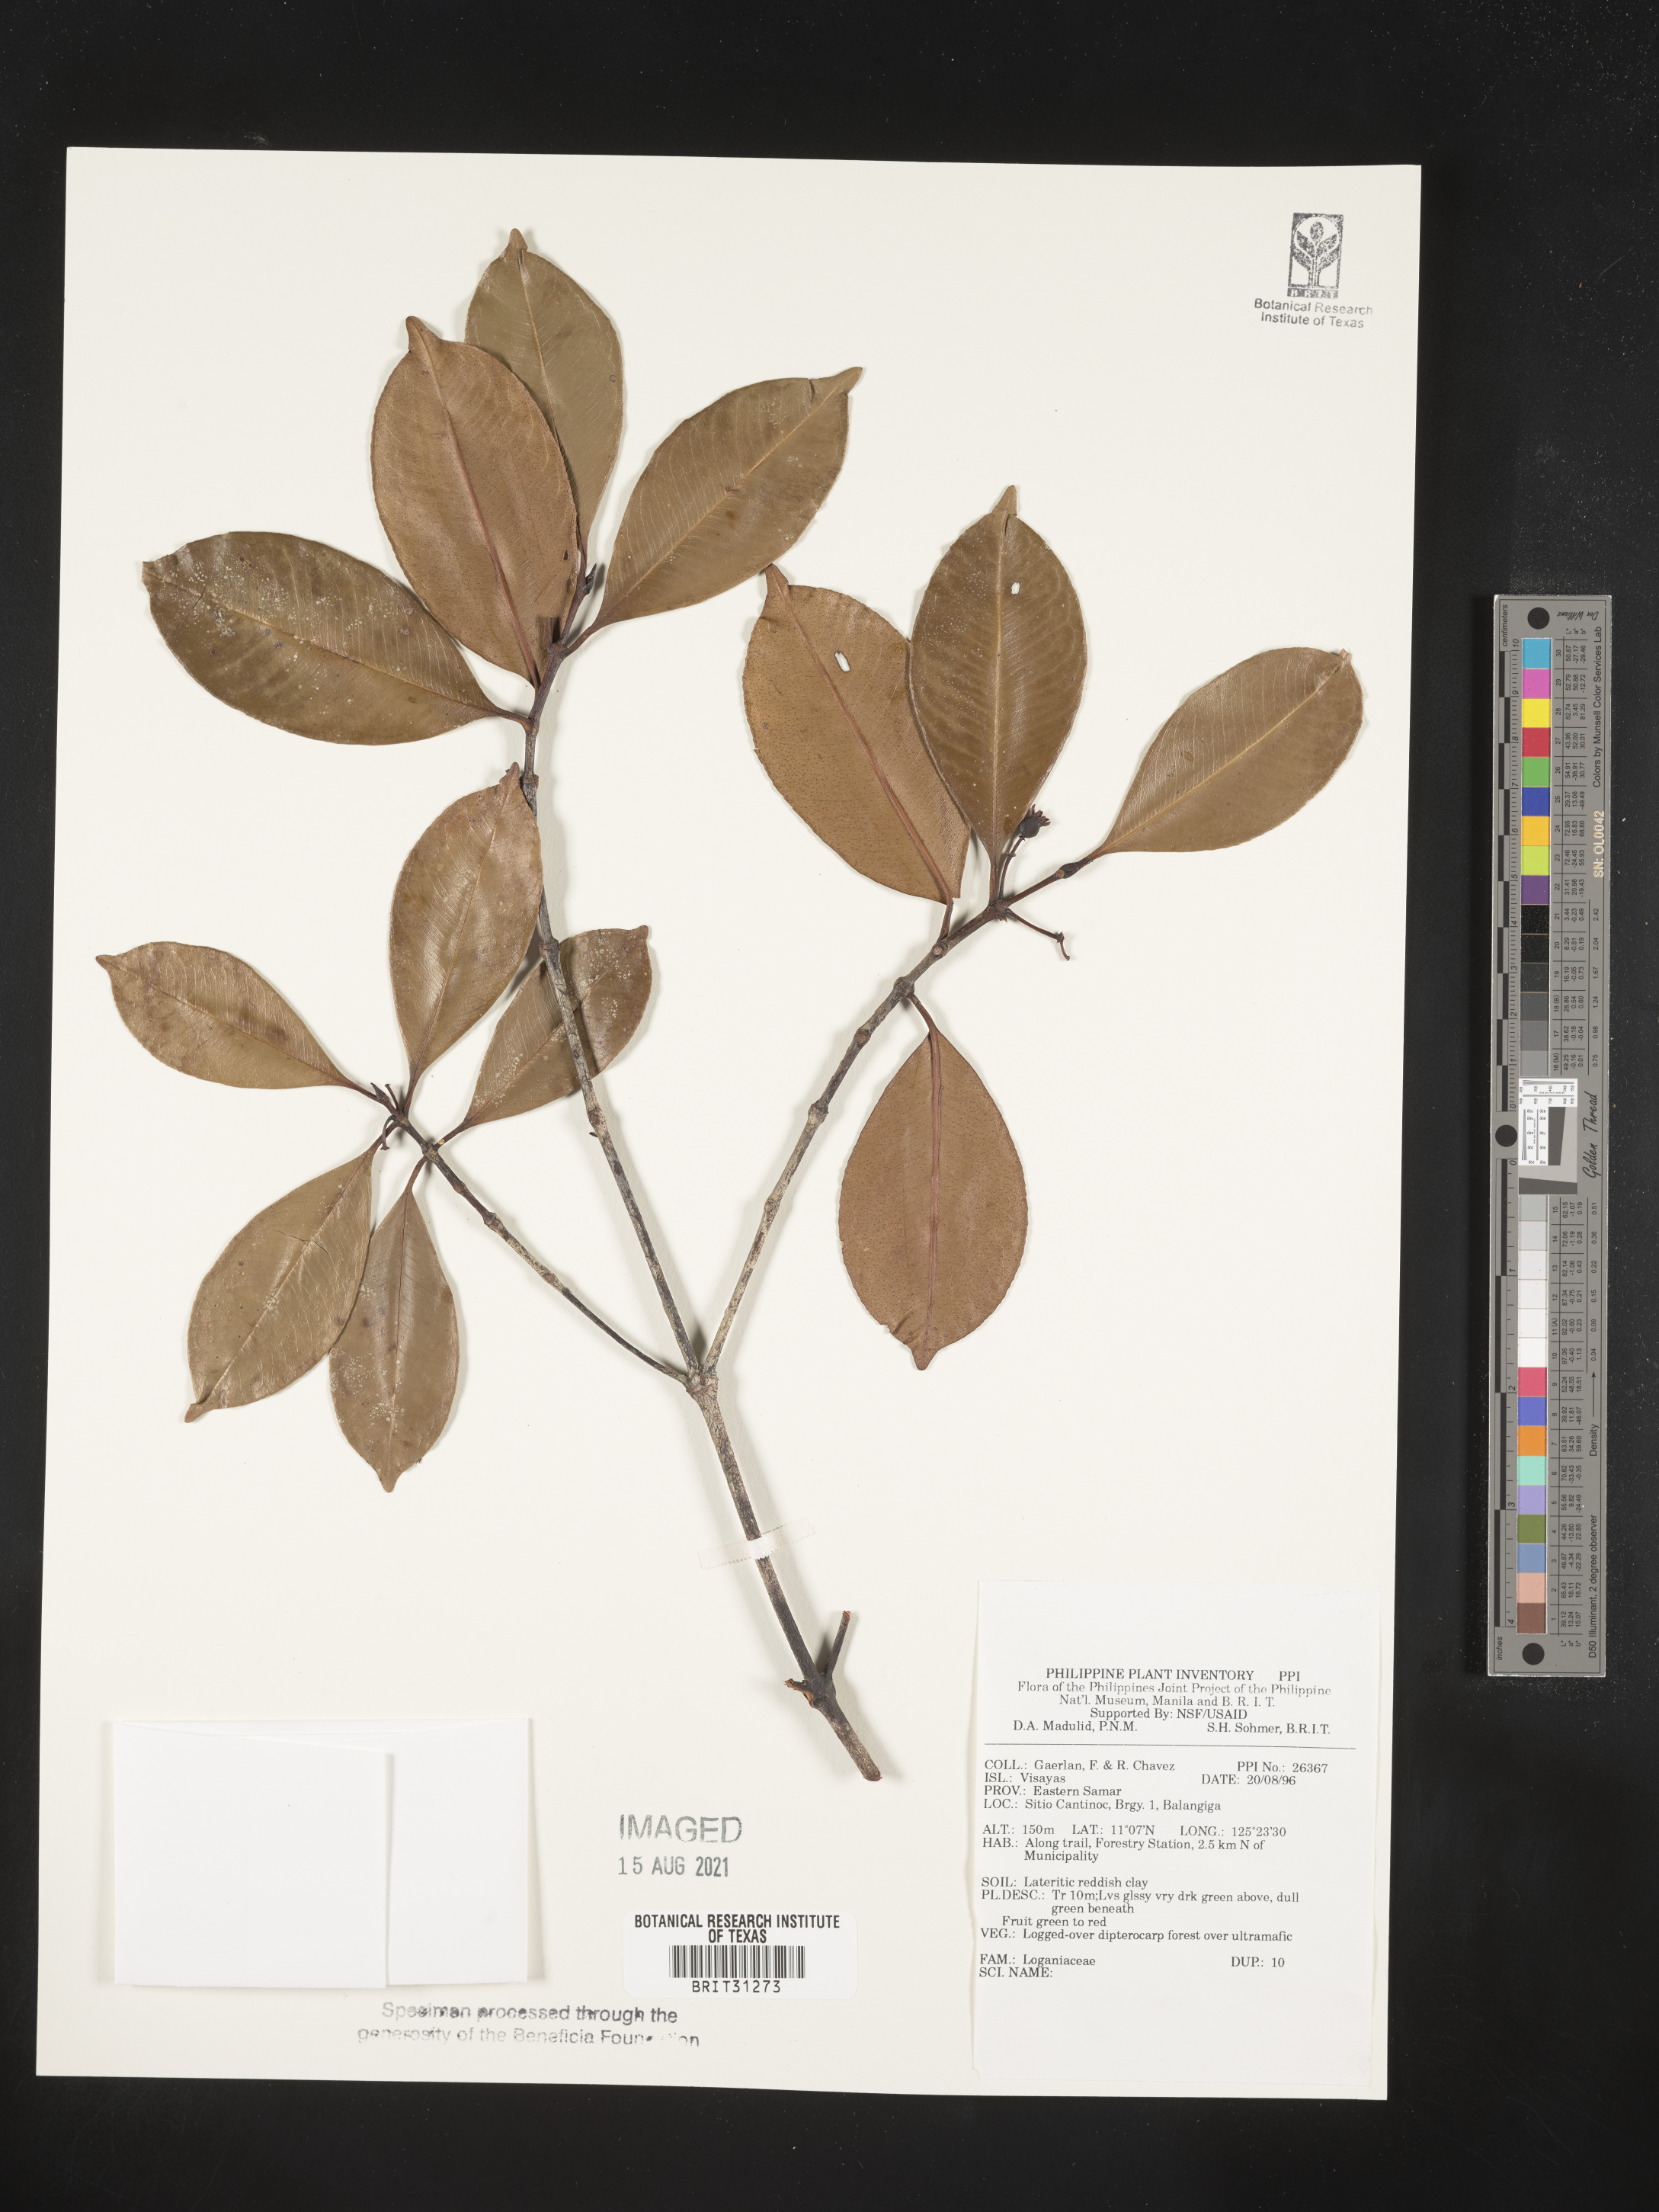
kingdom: Plantae
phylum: Tracheophyta
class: Magnoliopsida
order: Gentianales
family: Loganiaceae
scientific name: Loganiaceae
